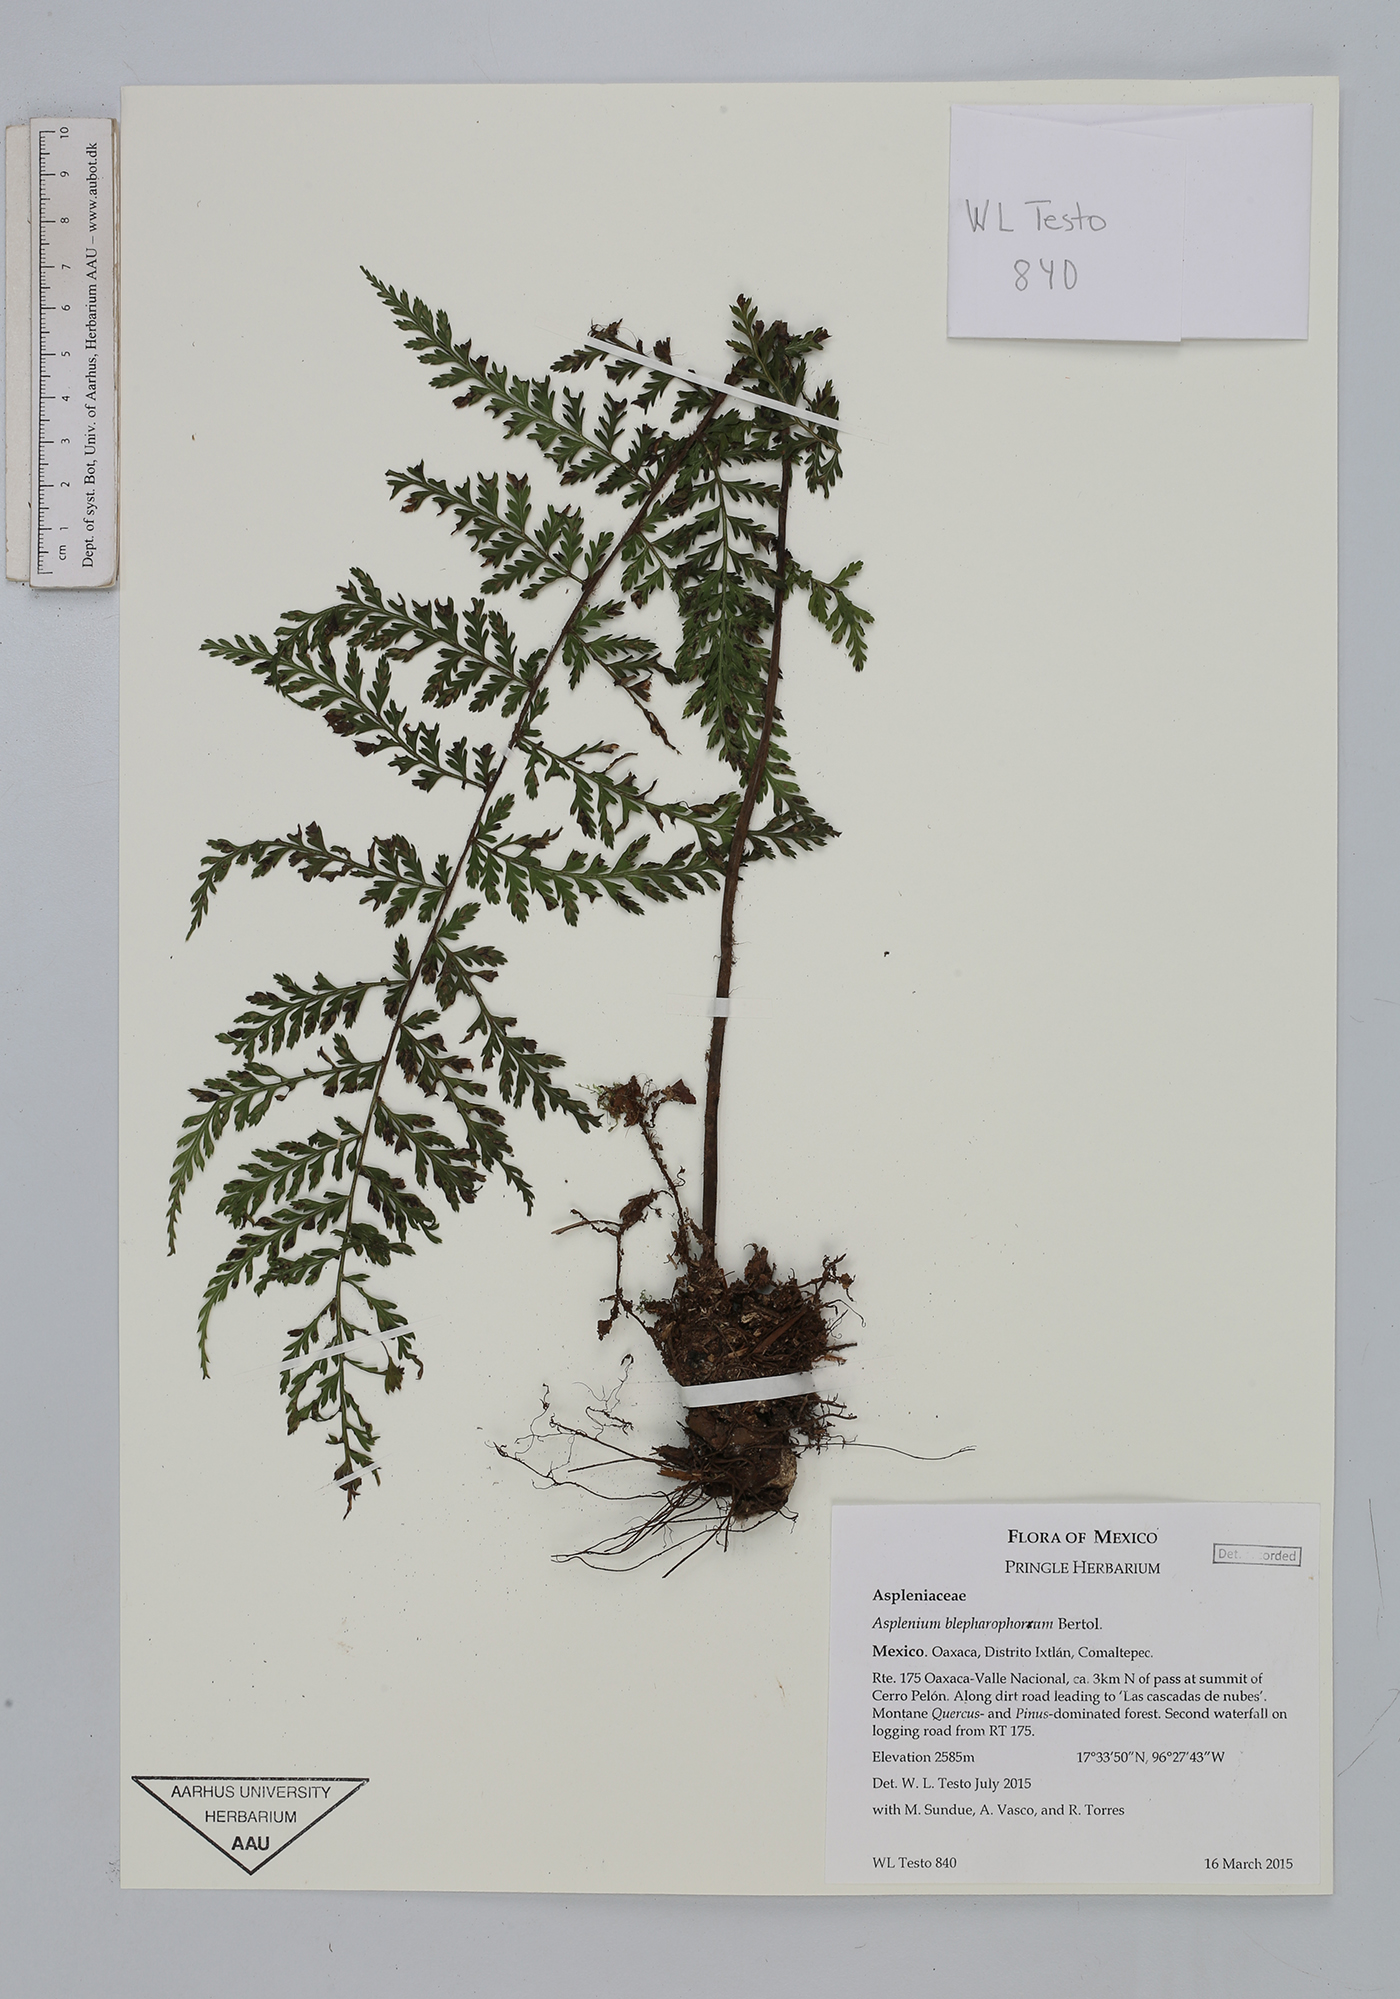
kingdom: Plantae
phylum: Tracheophyta
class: Polypodiopsida
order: Polypodiales
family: Aspleniaceae
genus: Asplenium
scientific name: Asplenium blepharophorum
